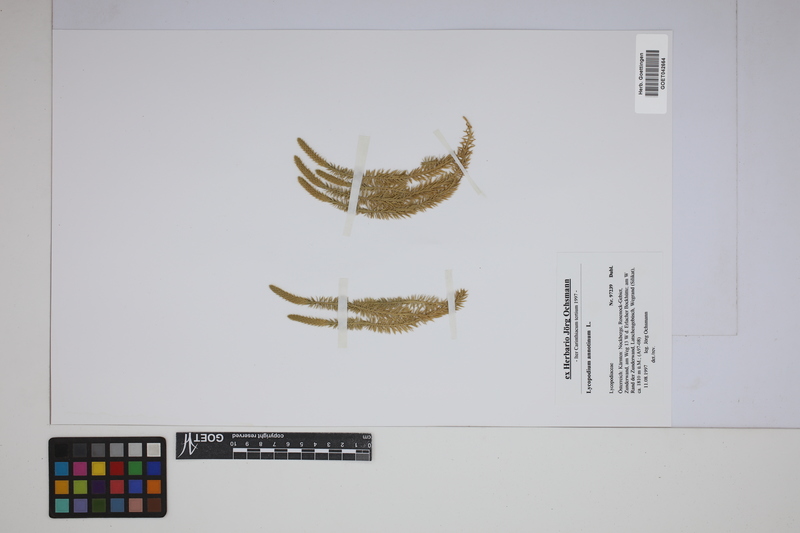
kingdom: Plantae
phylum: Tracheophyta
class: Lycopodiopsida
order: Lycopodiales
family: Lycopodiaceae
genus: Spinulum
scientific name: Spinulum annotinum
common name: Interrupted club-moss
